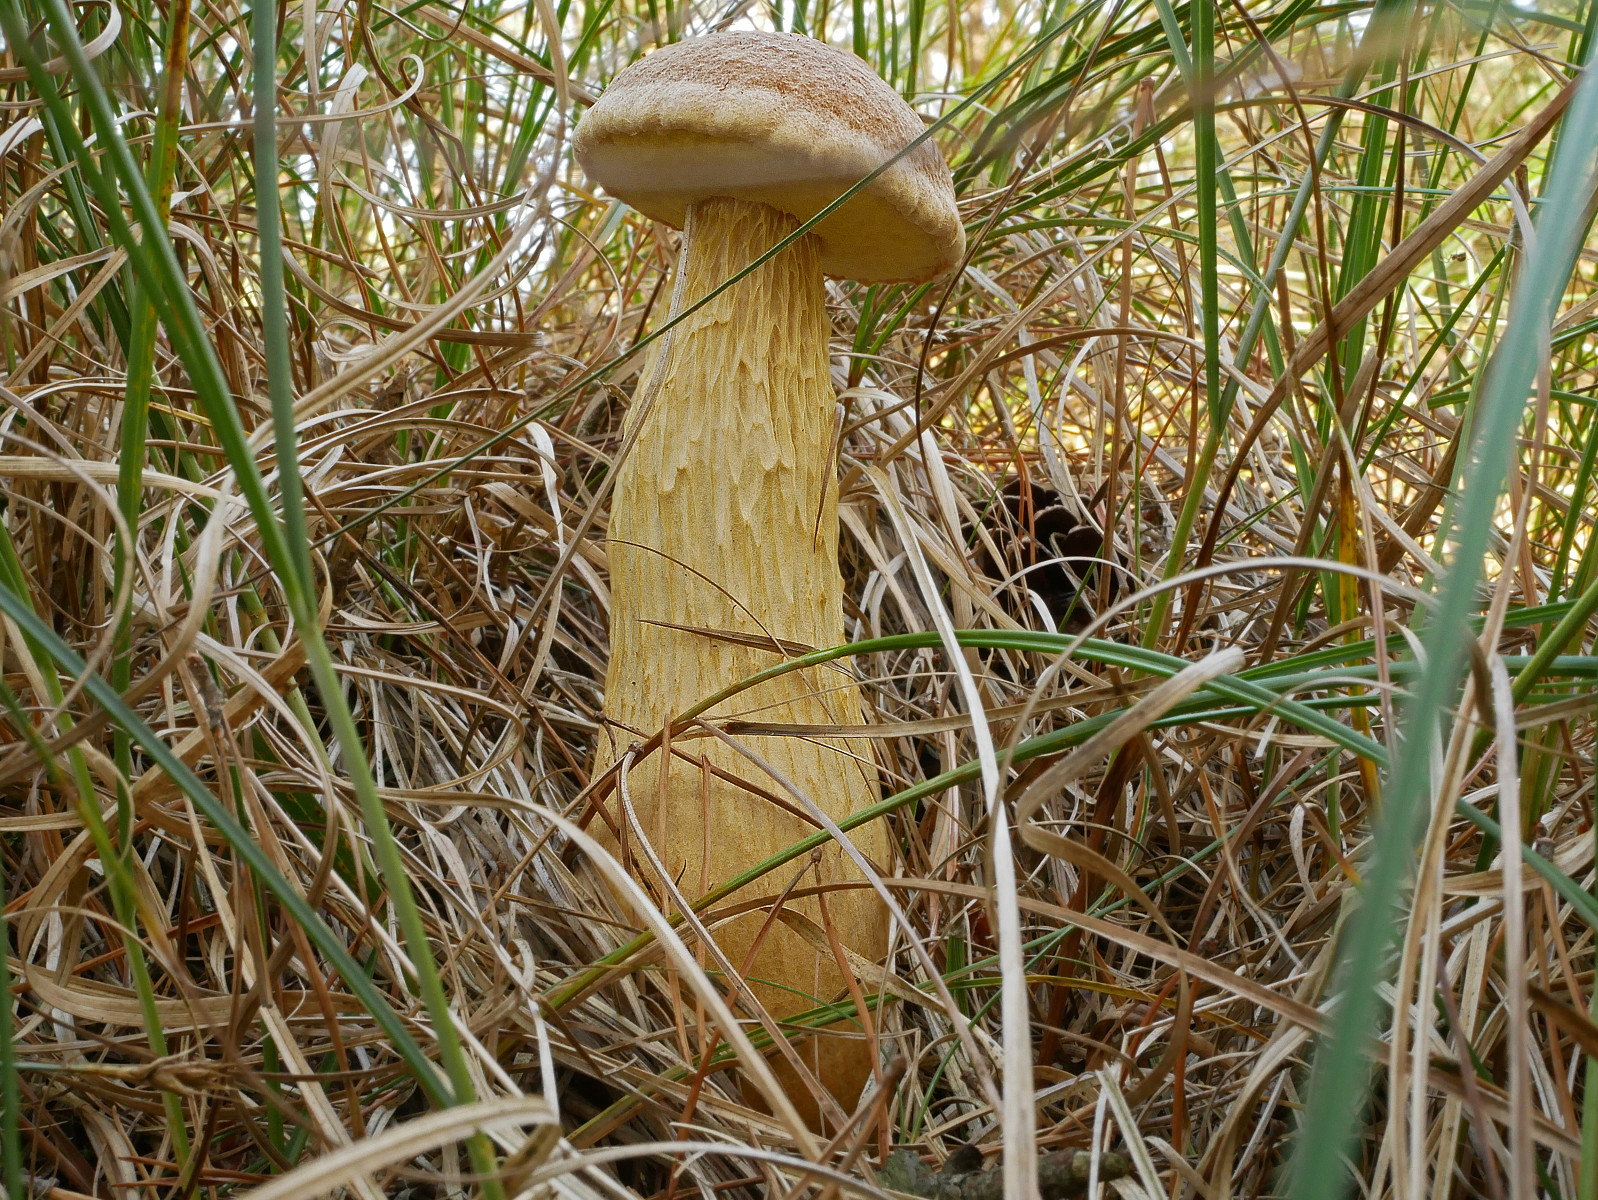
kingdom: Fungi
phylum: Basidiomycota
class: Agaricomycetes
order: Boletales
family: Boletaceae
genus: Aureoboletus
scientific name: Aureoboletus projectellus
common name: ribbestokket rørhat
